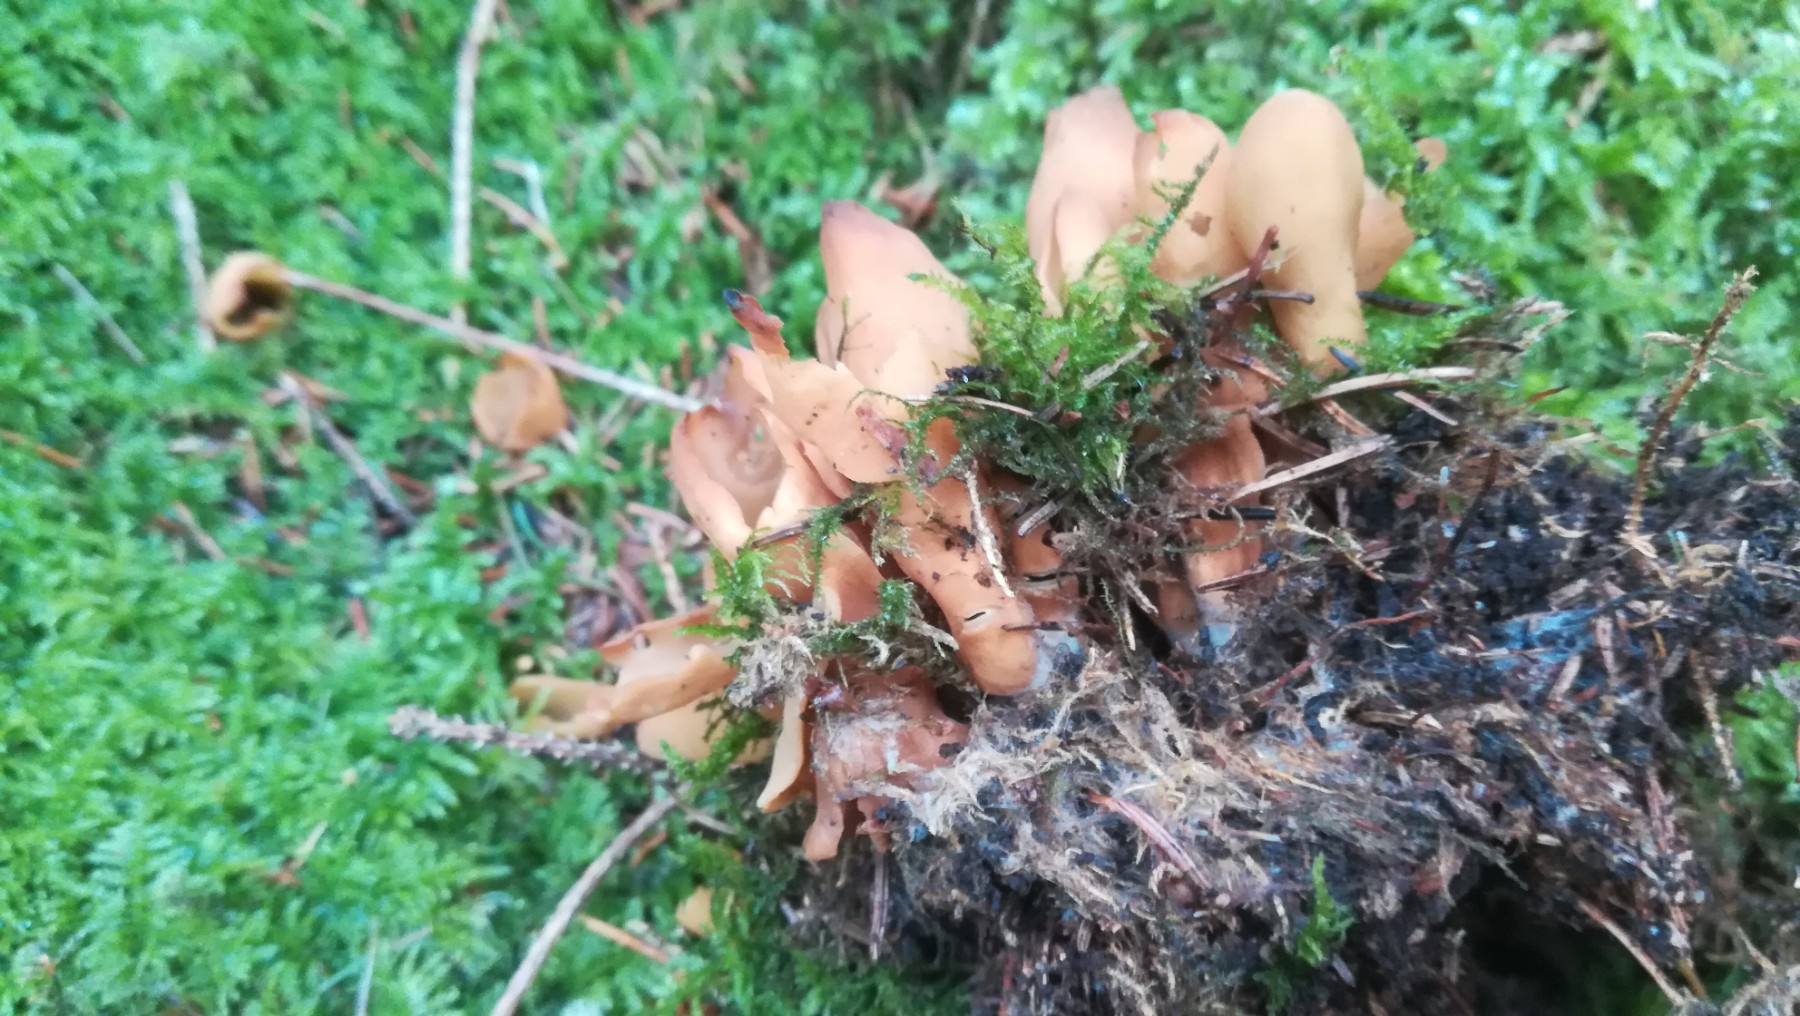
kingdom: Fungi
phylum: Ascomycota
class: Pezizomycetes
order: Pezizales
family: Otideaceae
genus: Otidea
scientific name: Otidea
